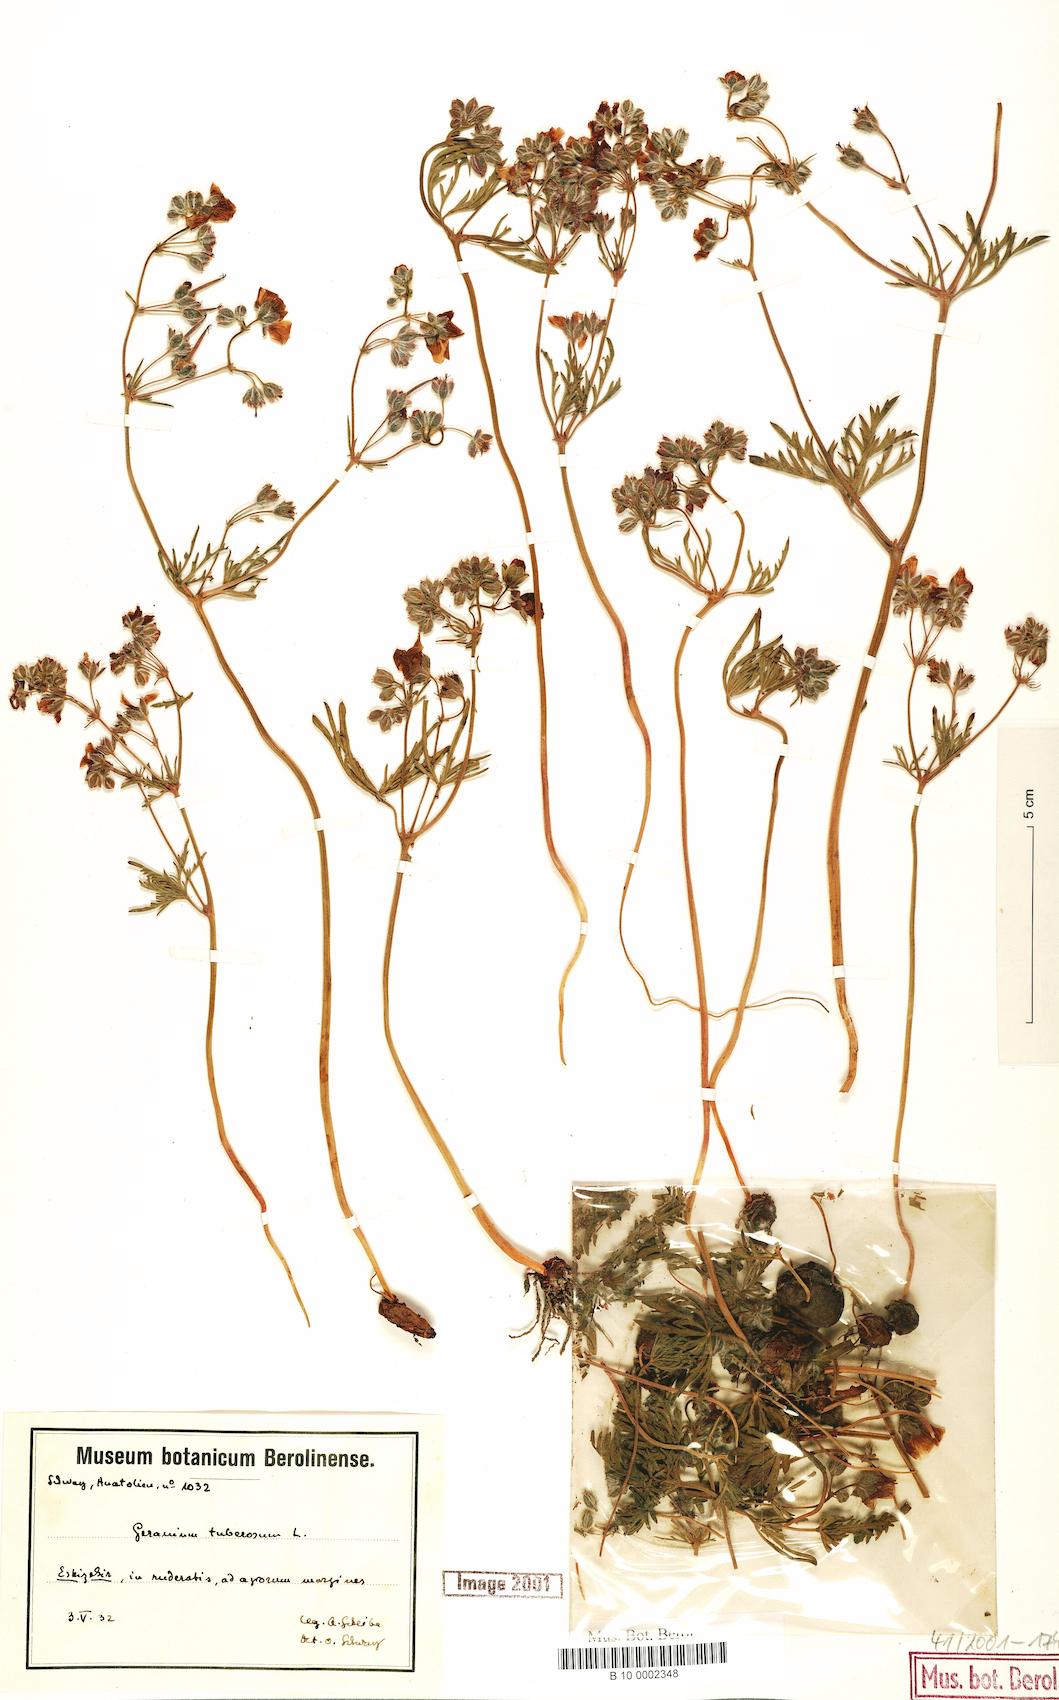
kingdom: Plantae
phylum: Tracheophyta
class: Magnoliopsida
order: Geraniales
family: Geraniaceae
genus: Geranium
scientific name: Geranium tuberosum
